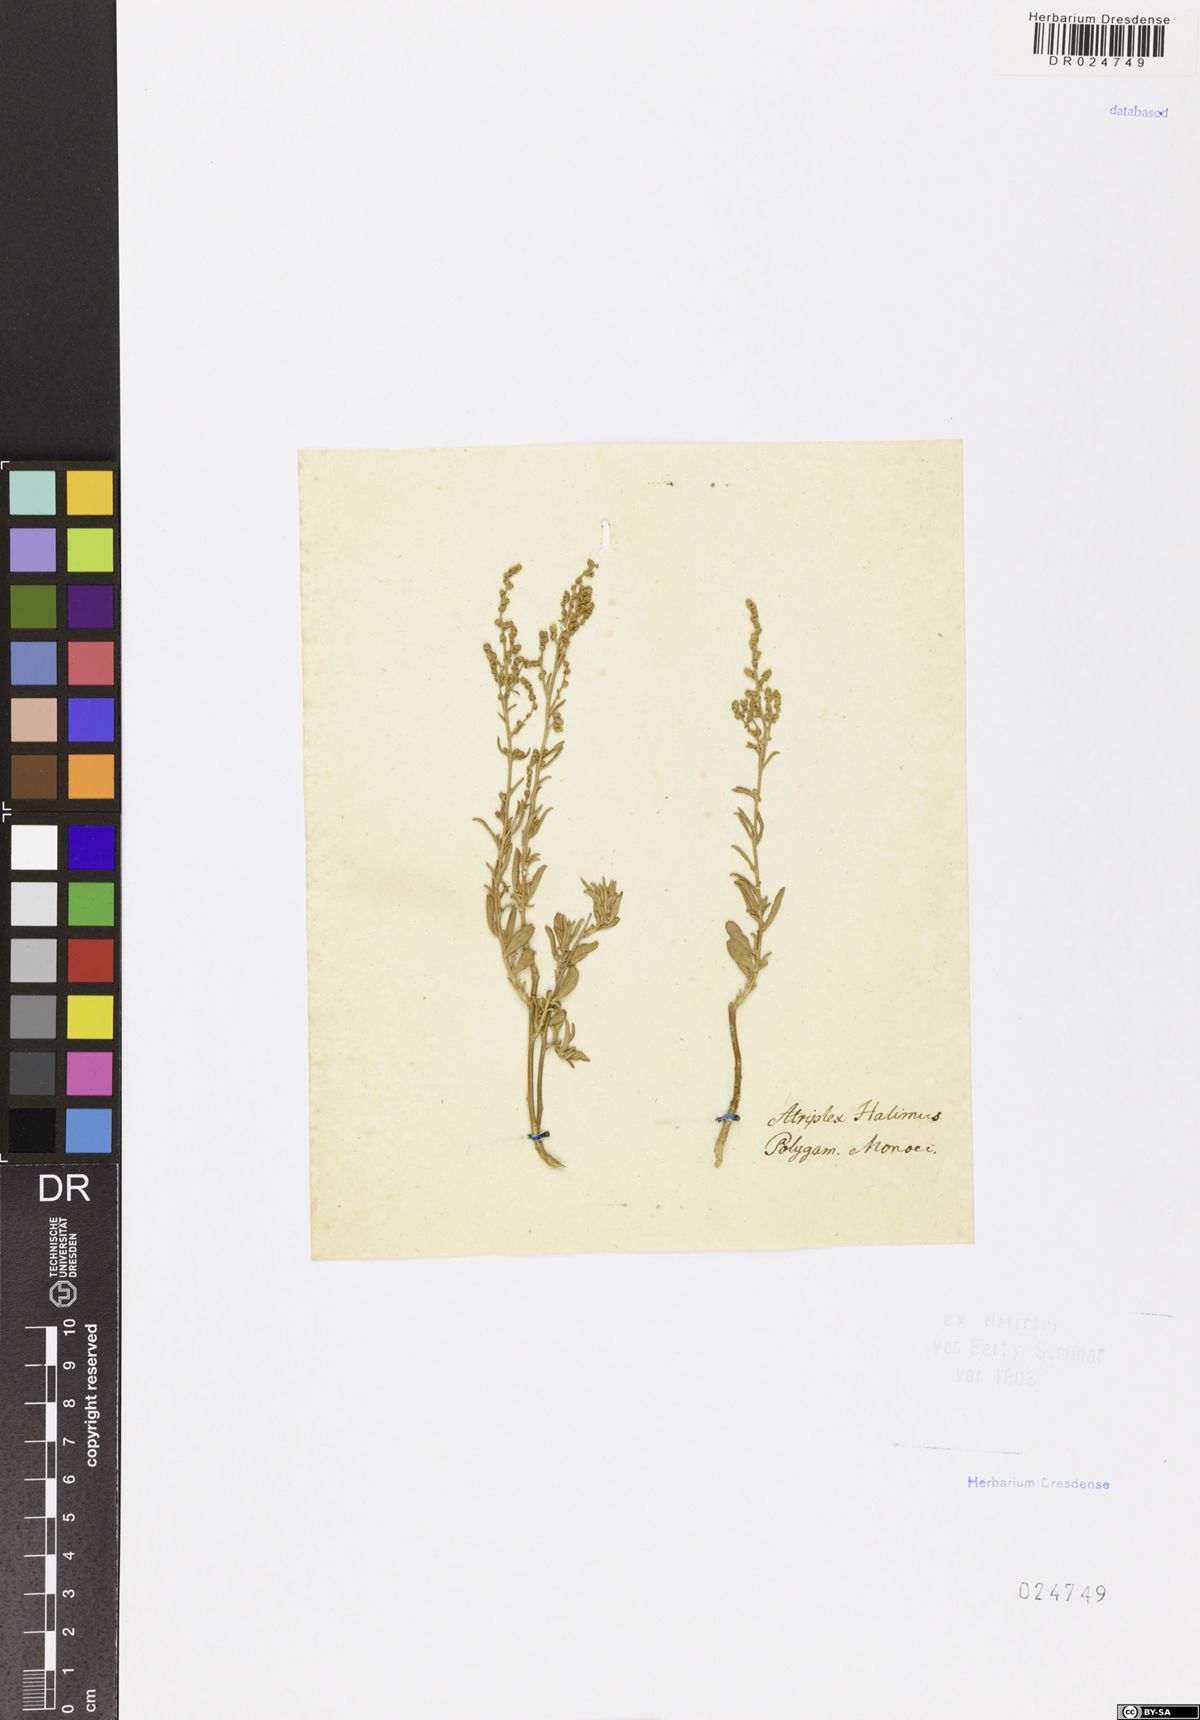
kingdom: Plantae
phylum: Tracheophyta
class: Magnoliopsida
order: Caryophyllales
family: Amaranthaceae
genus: Atriplex
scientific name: Atriplex halimus
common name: Shrubby orache
